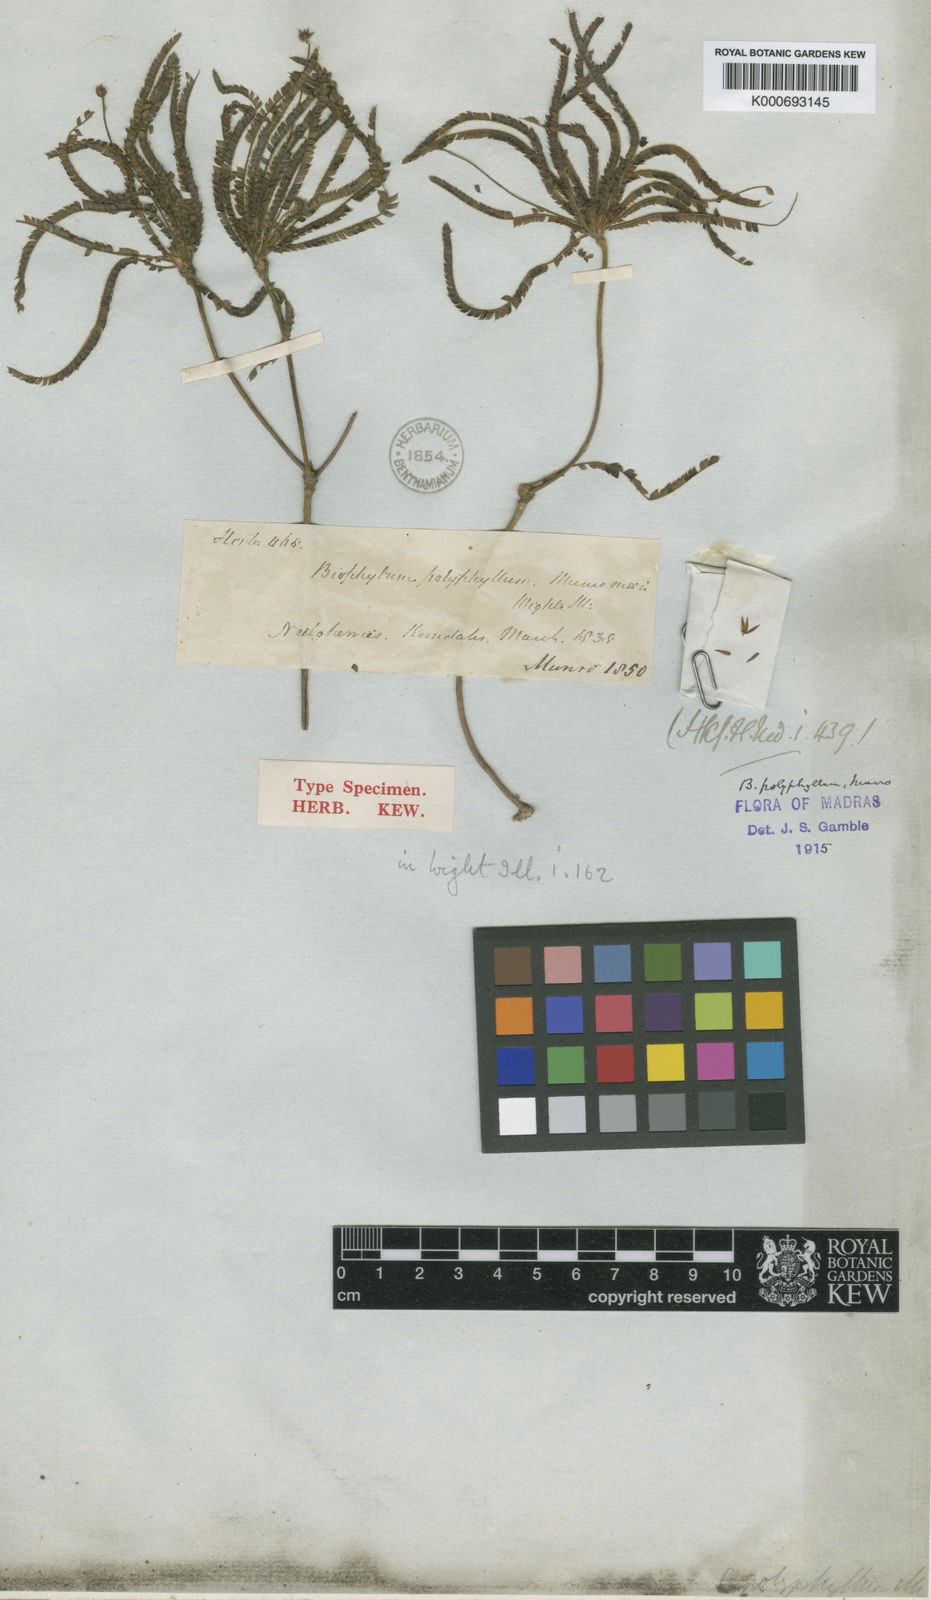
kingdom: Plantae
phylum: Tracheophyta
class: Magnoliopsida
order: Oxalidales
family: Oxalidaceae
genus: Biophytum
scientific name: Biophytum polyphyllum
